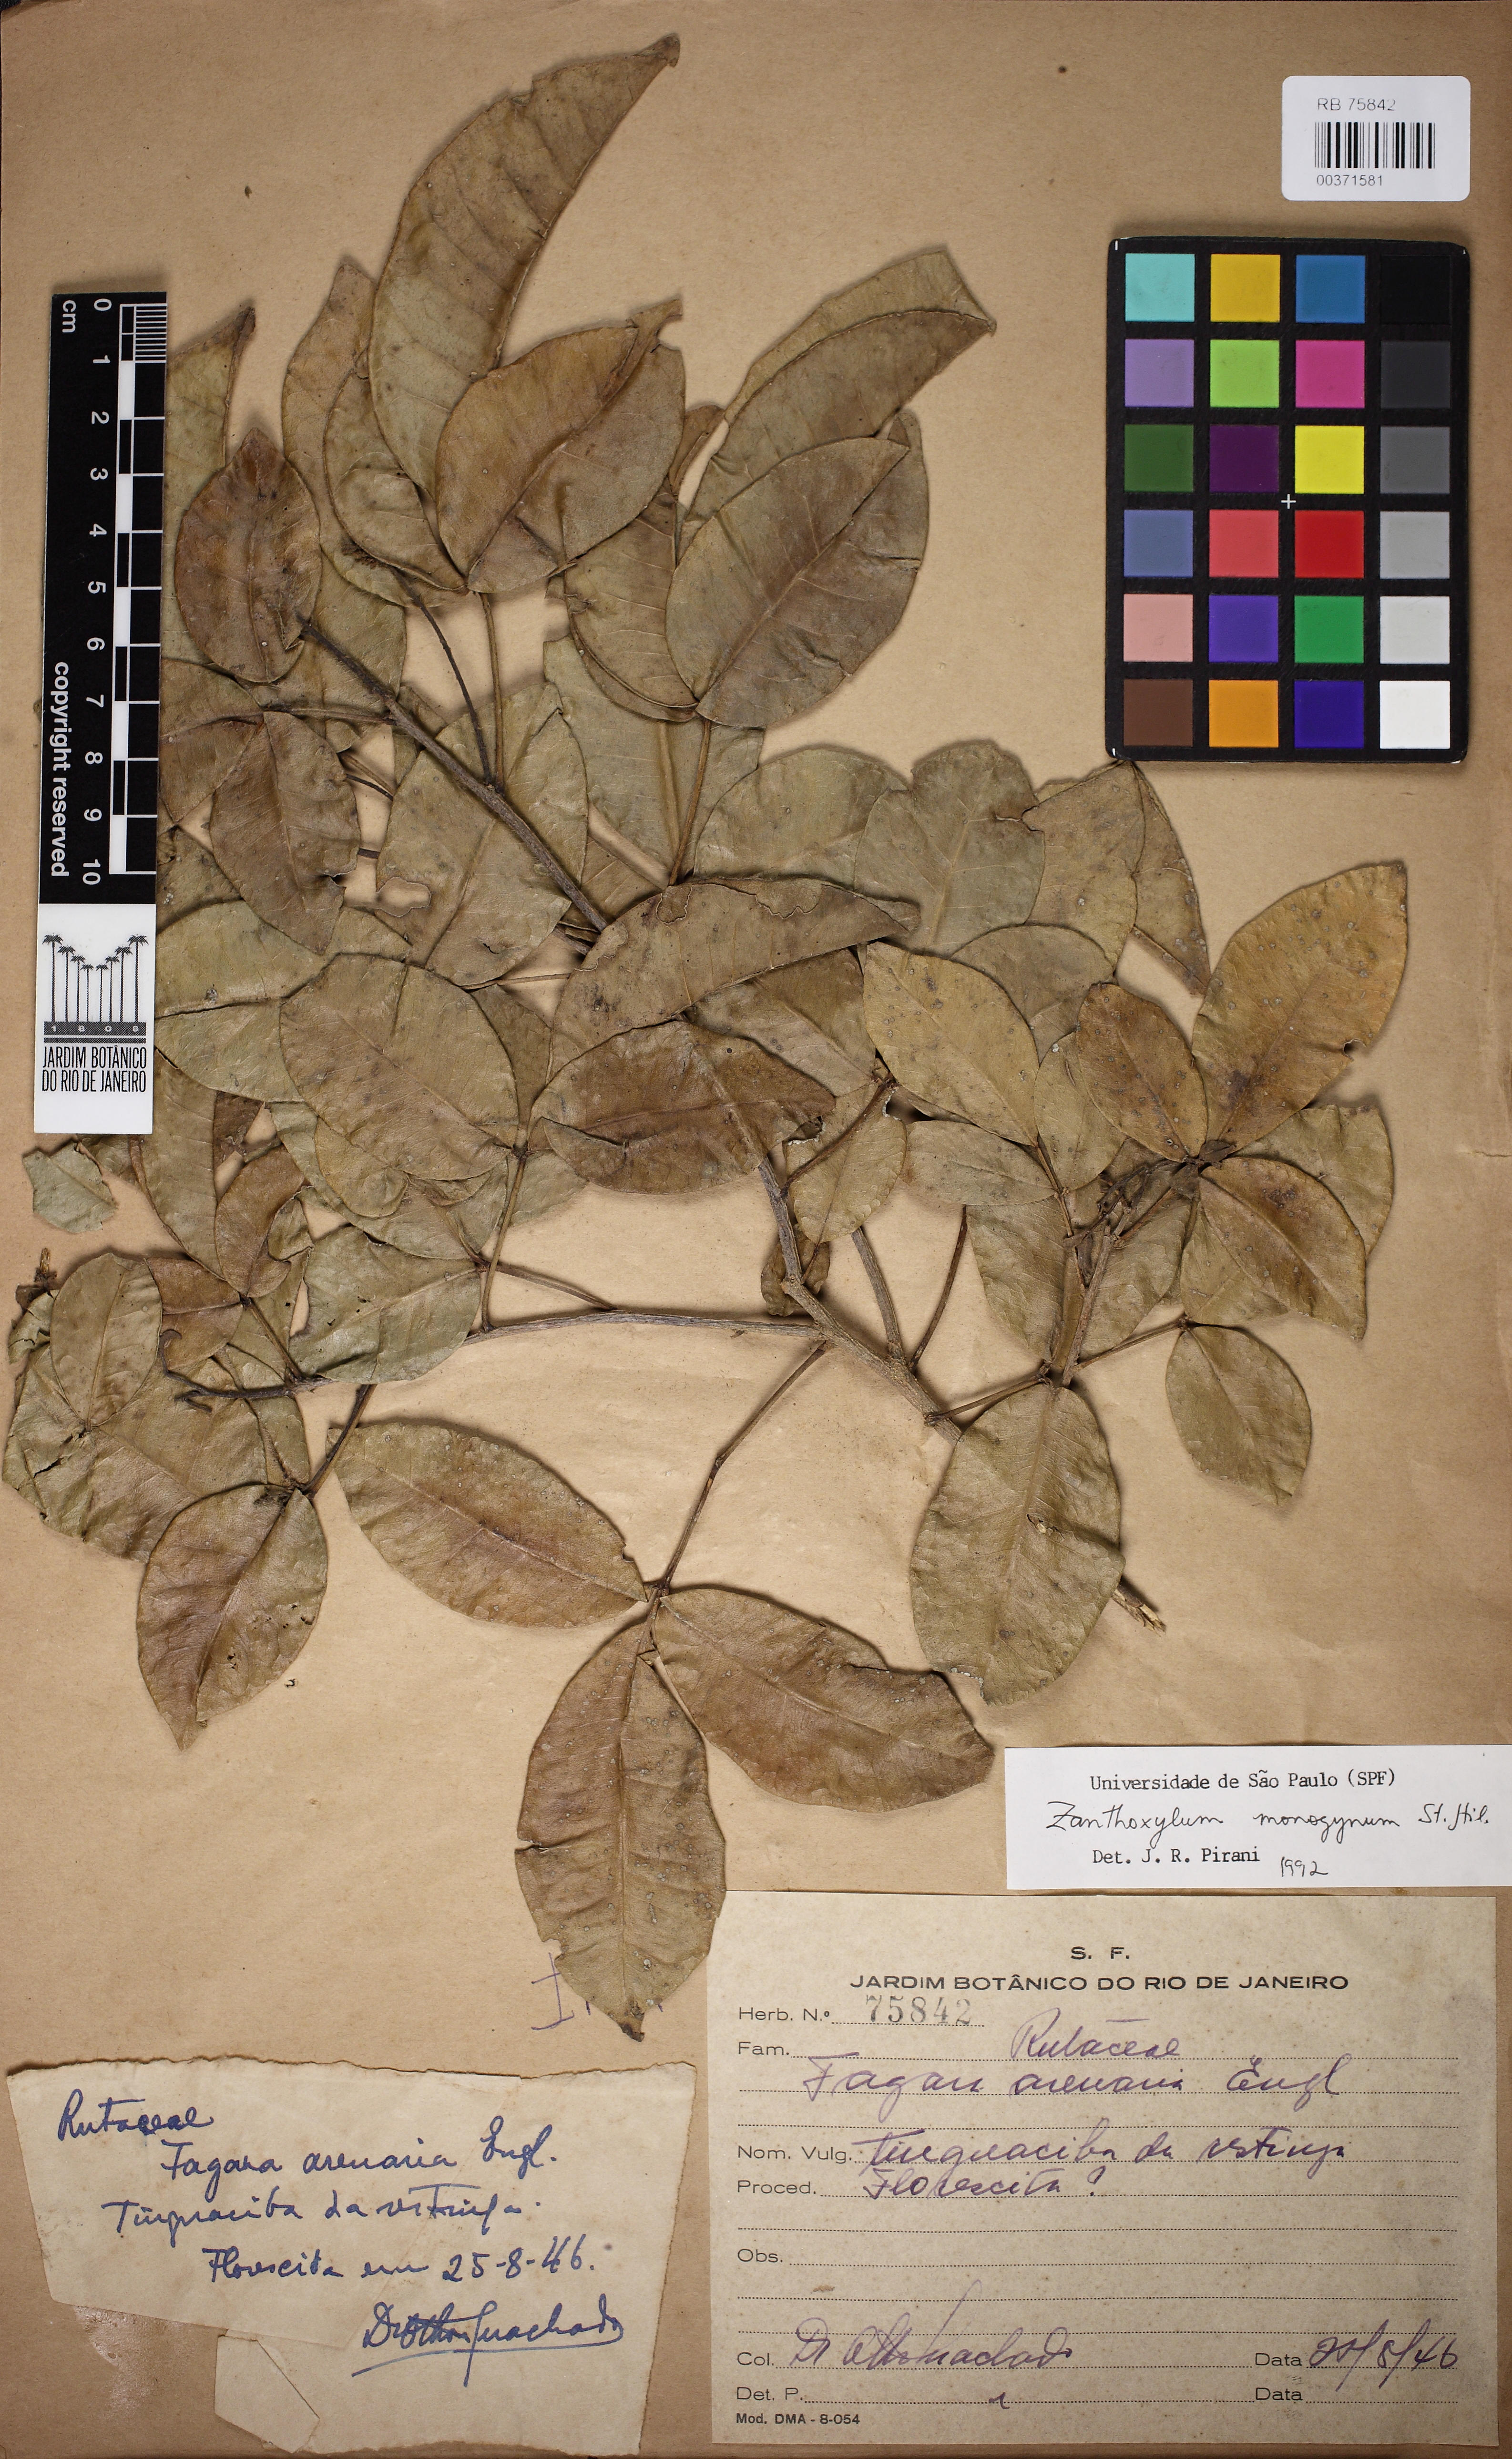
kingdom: Plantae
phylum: Tracheophyta
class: Magnoliopsida
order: Sapindales
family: Rutaceae
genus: Zanthoxylum
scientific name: Zanthoxylum monogynum
